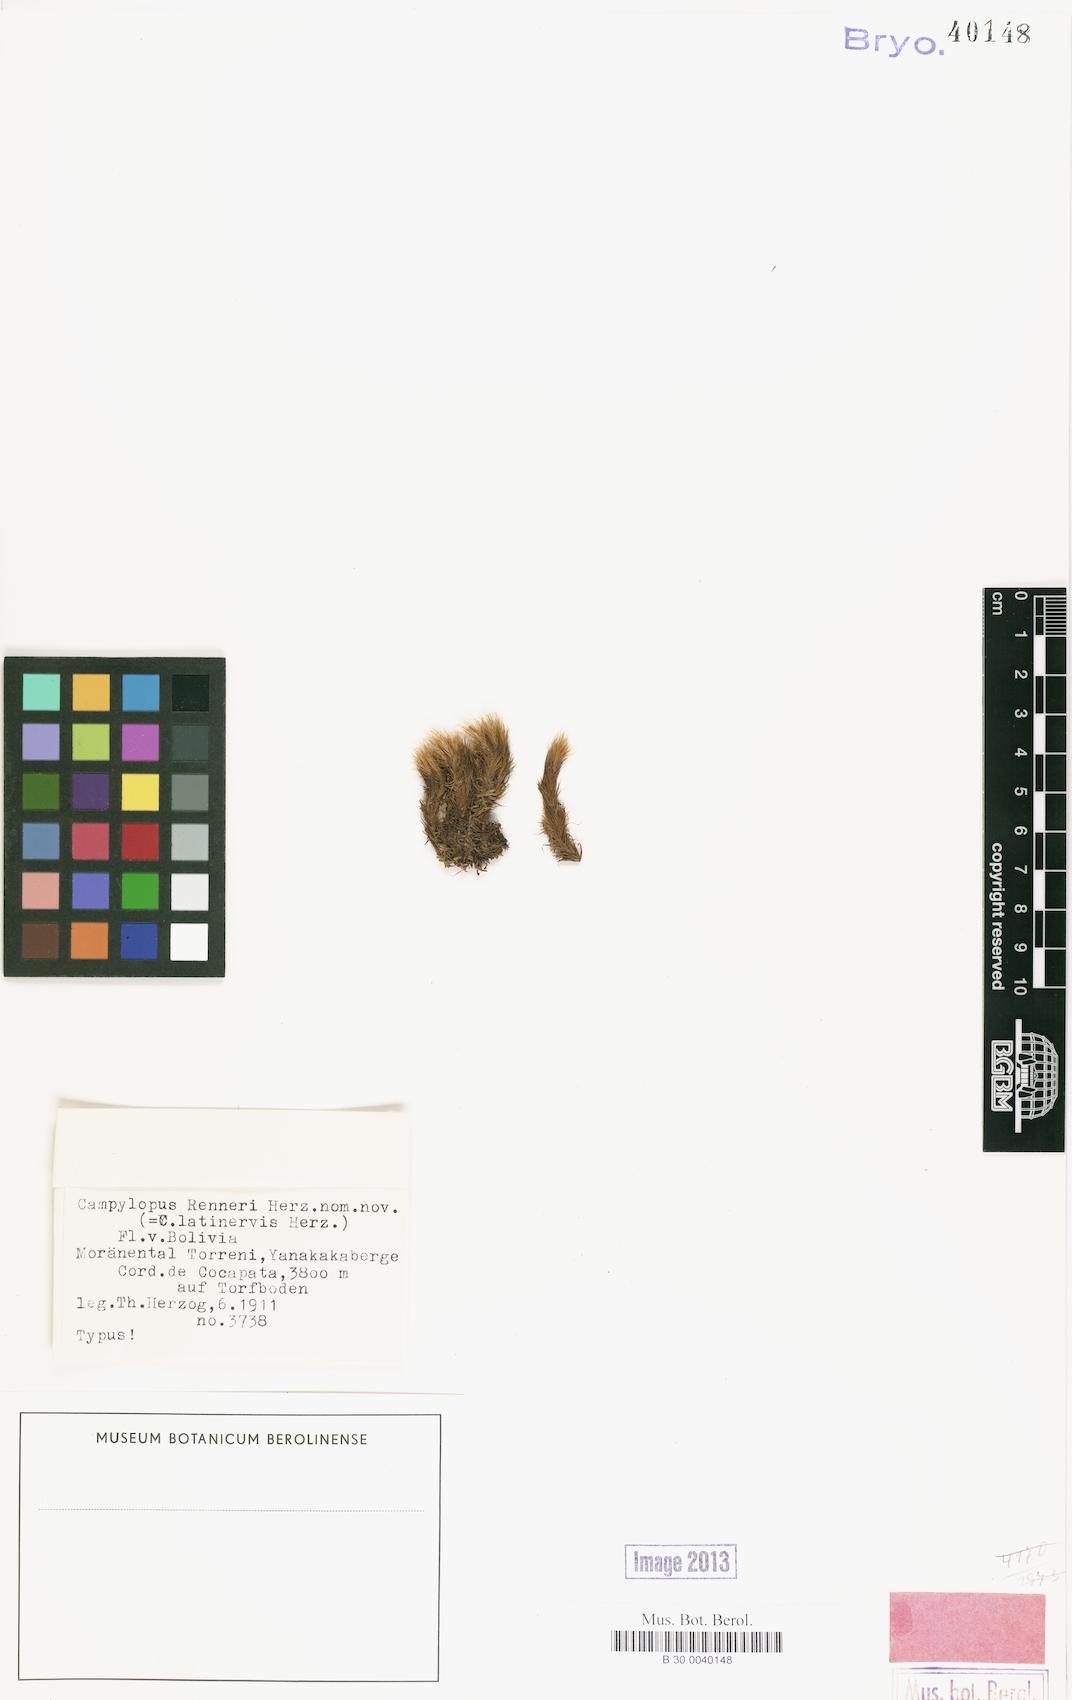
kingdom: Plantae
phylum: Bryophyta
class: Bryopsida
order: Dicranales
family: Leucobryaceae
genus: Campylopus
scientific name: Campylopus pittieri
